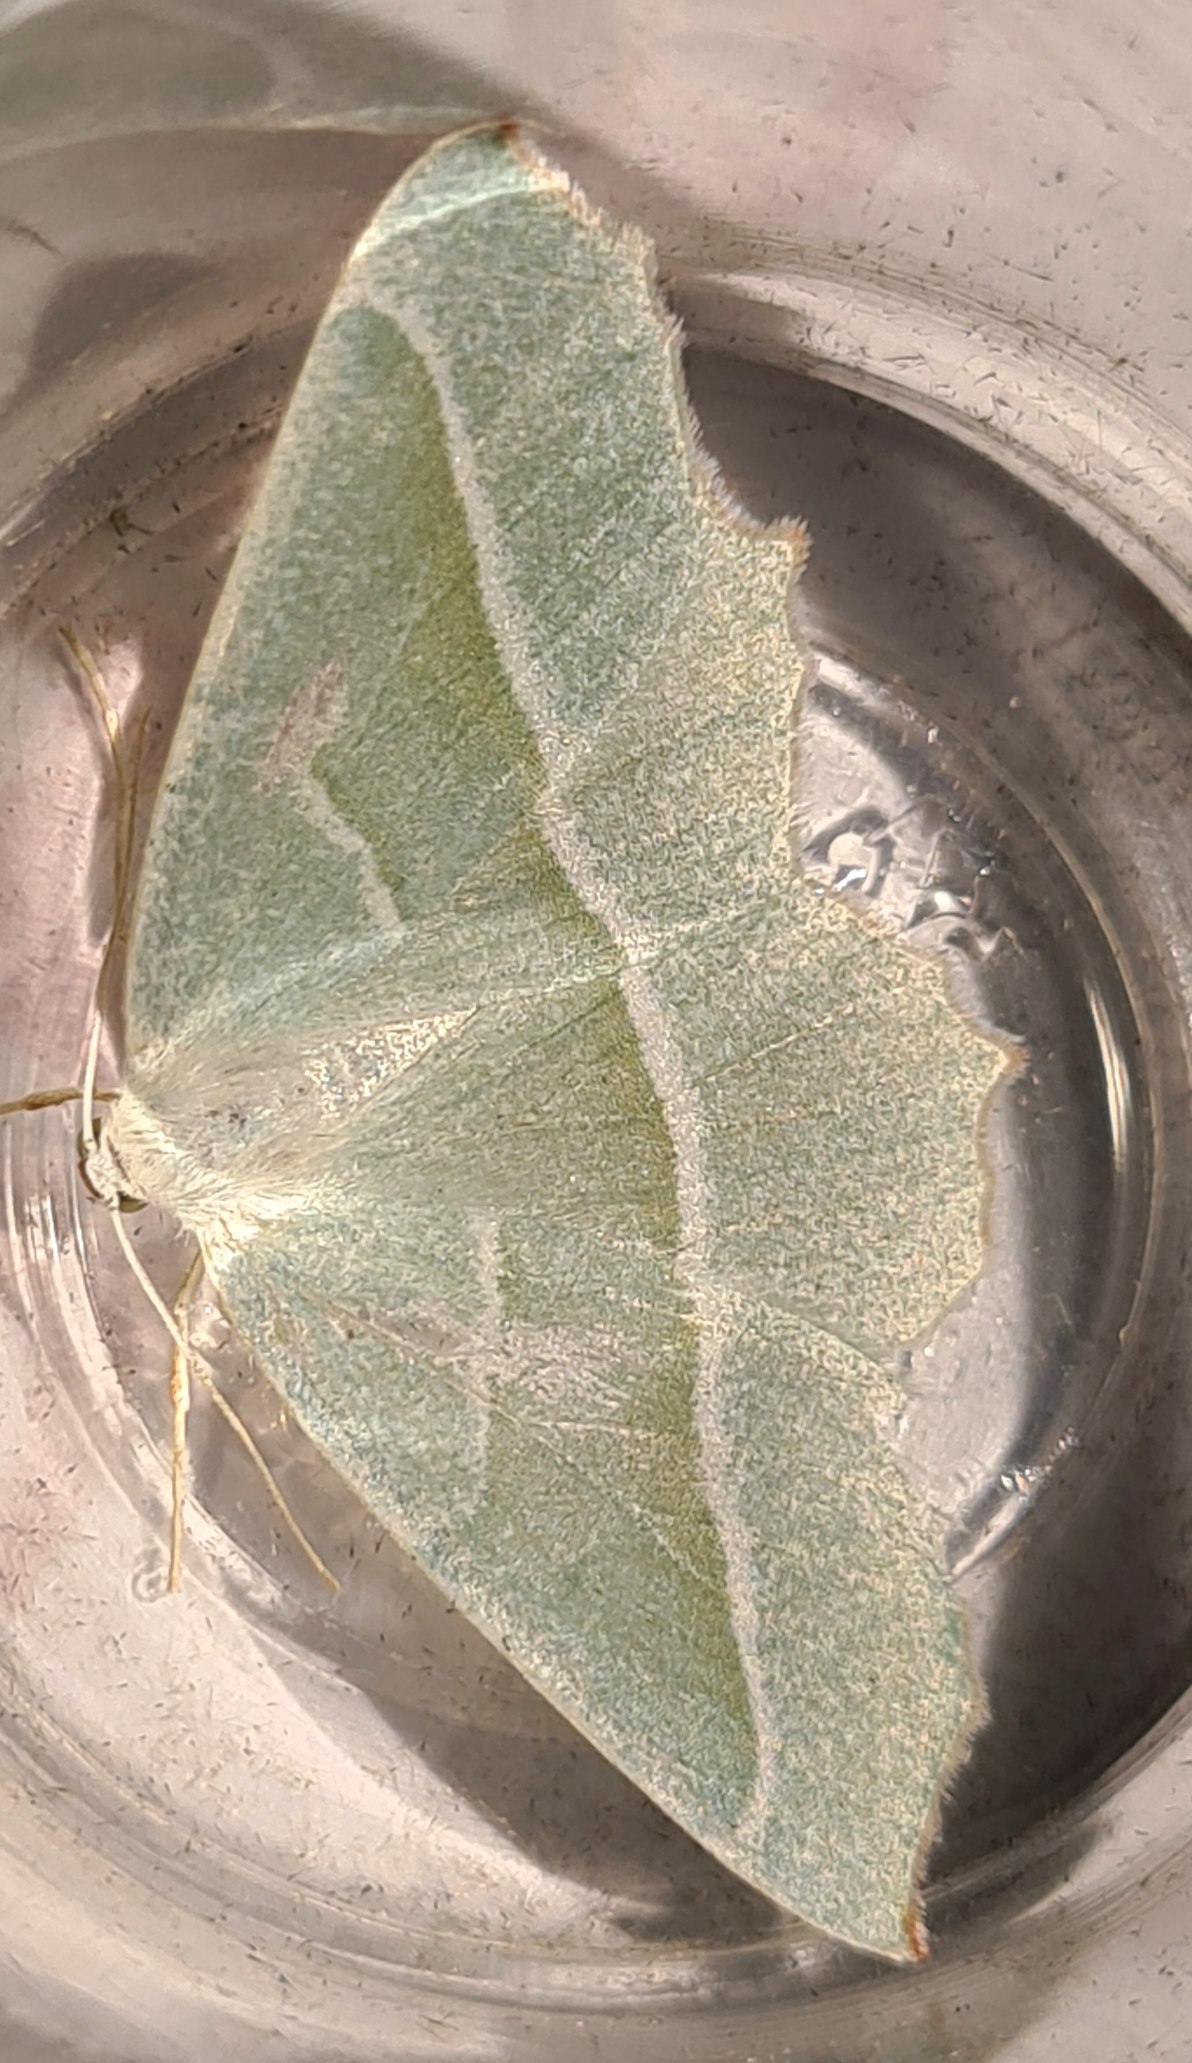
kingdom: Animalia
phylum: Arthropoda
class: Insecta
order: Lepidoptera
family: Geometridae
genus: Campaea
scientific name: Campaea margaritaria
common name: Perlemåler
